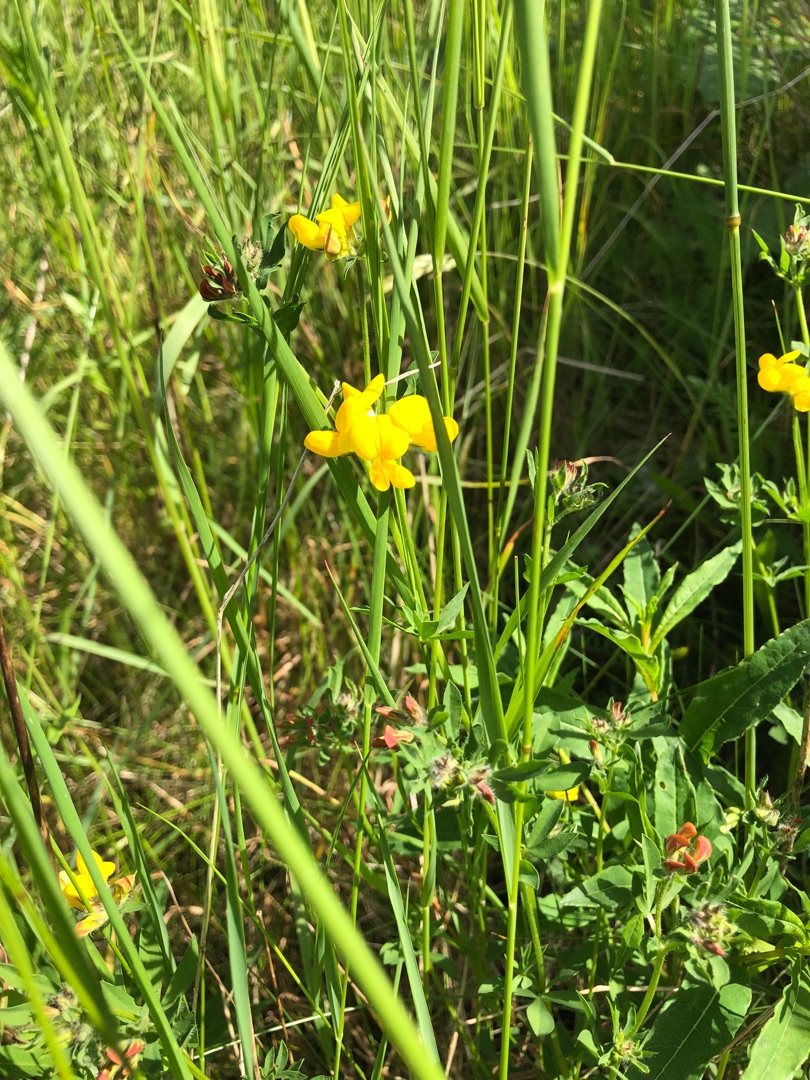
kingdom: Plantae
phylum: Tracheophyta
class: Magnoliopsida
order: Fabales
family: Fabaceae
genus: Lotus
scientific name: Lotus corniculatus
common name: Almindelig kællingetand
